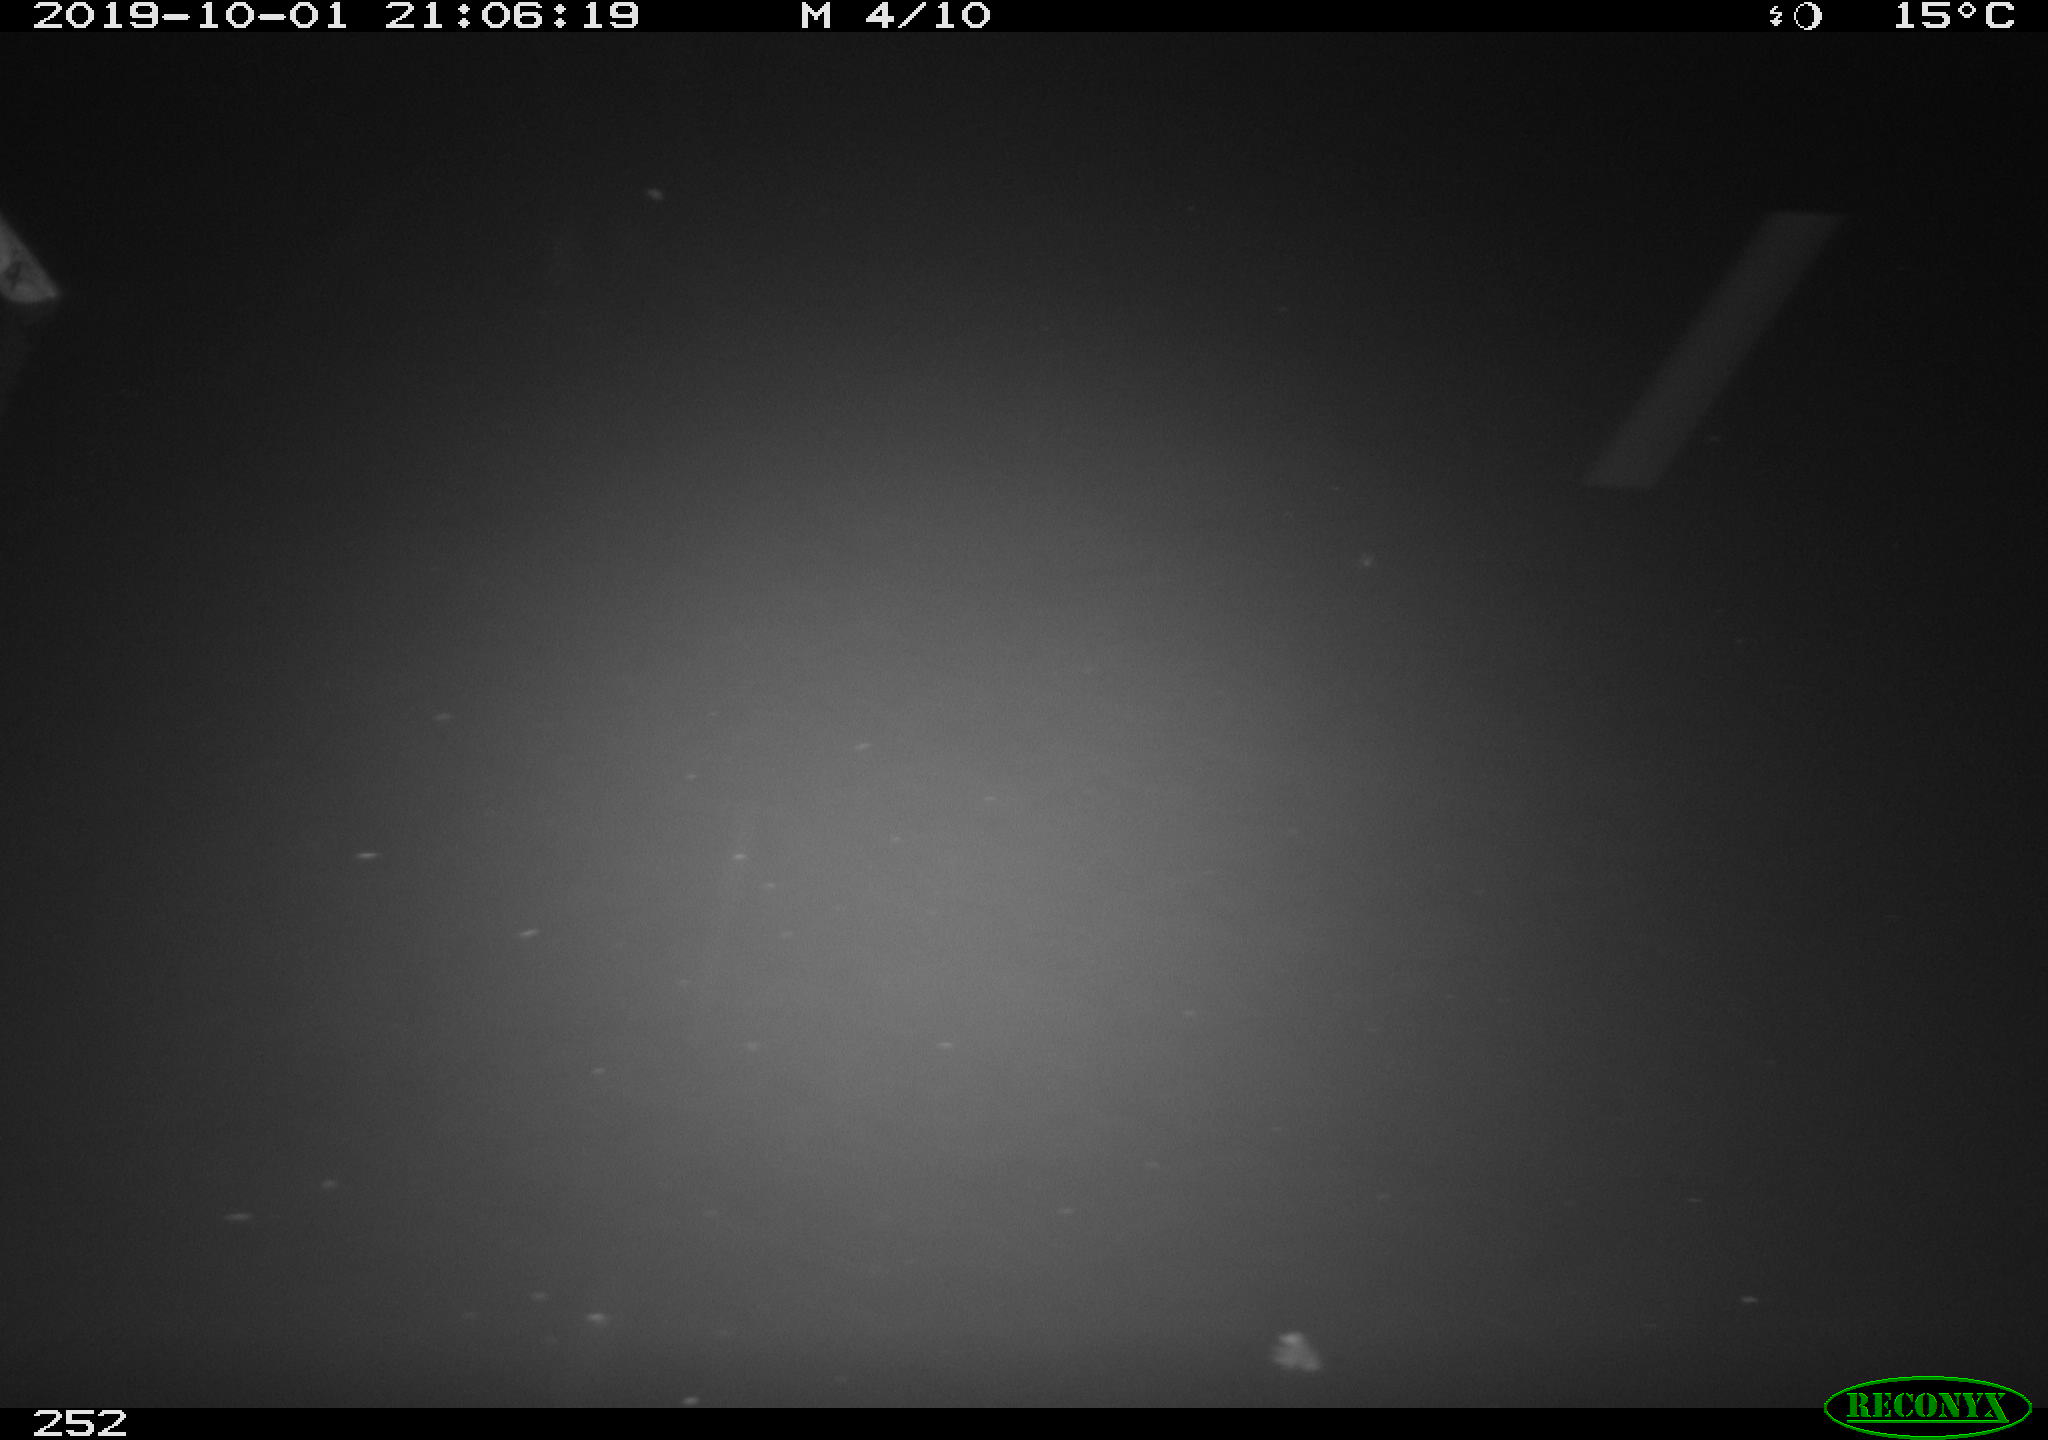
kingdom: Animalia
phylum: Chordata
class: Aves
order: Anseriformes
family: Anatidae
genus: Anas
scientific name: Anas platyrhynchos
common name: Mallard
